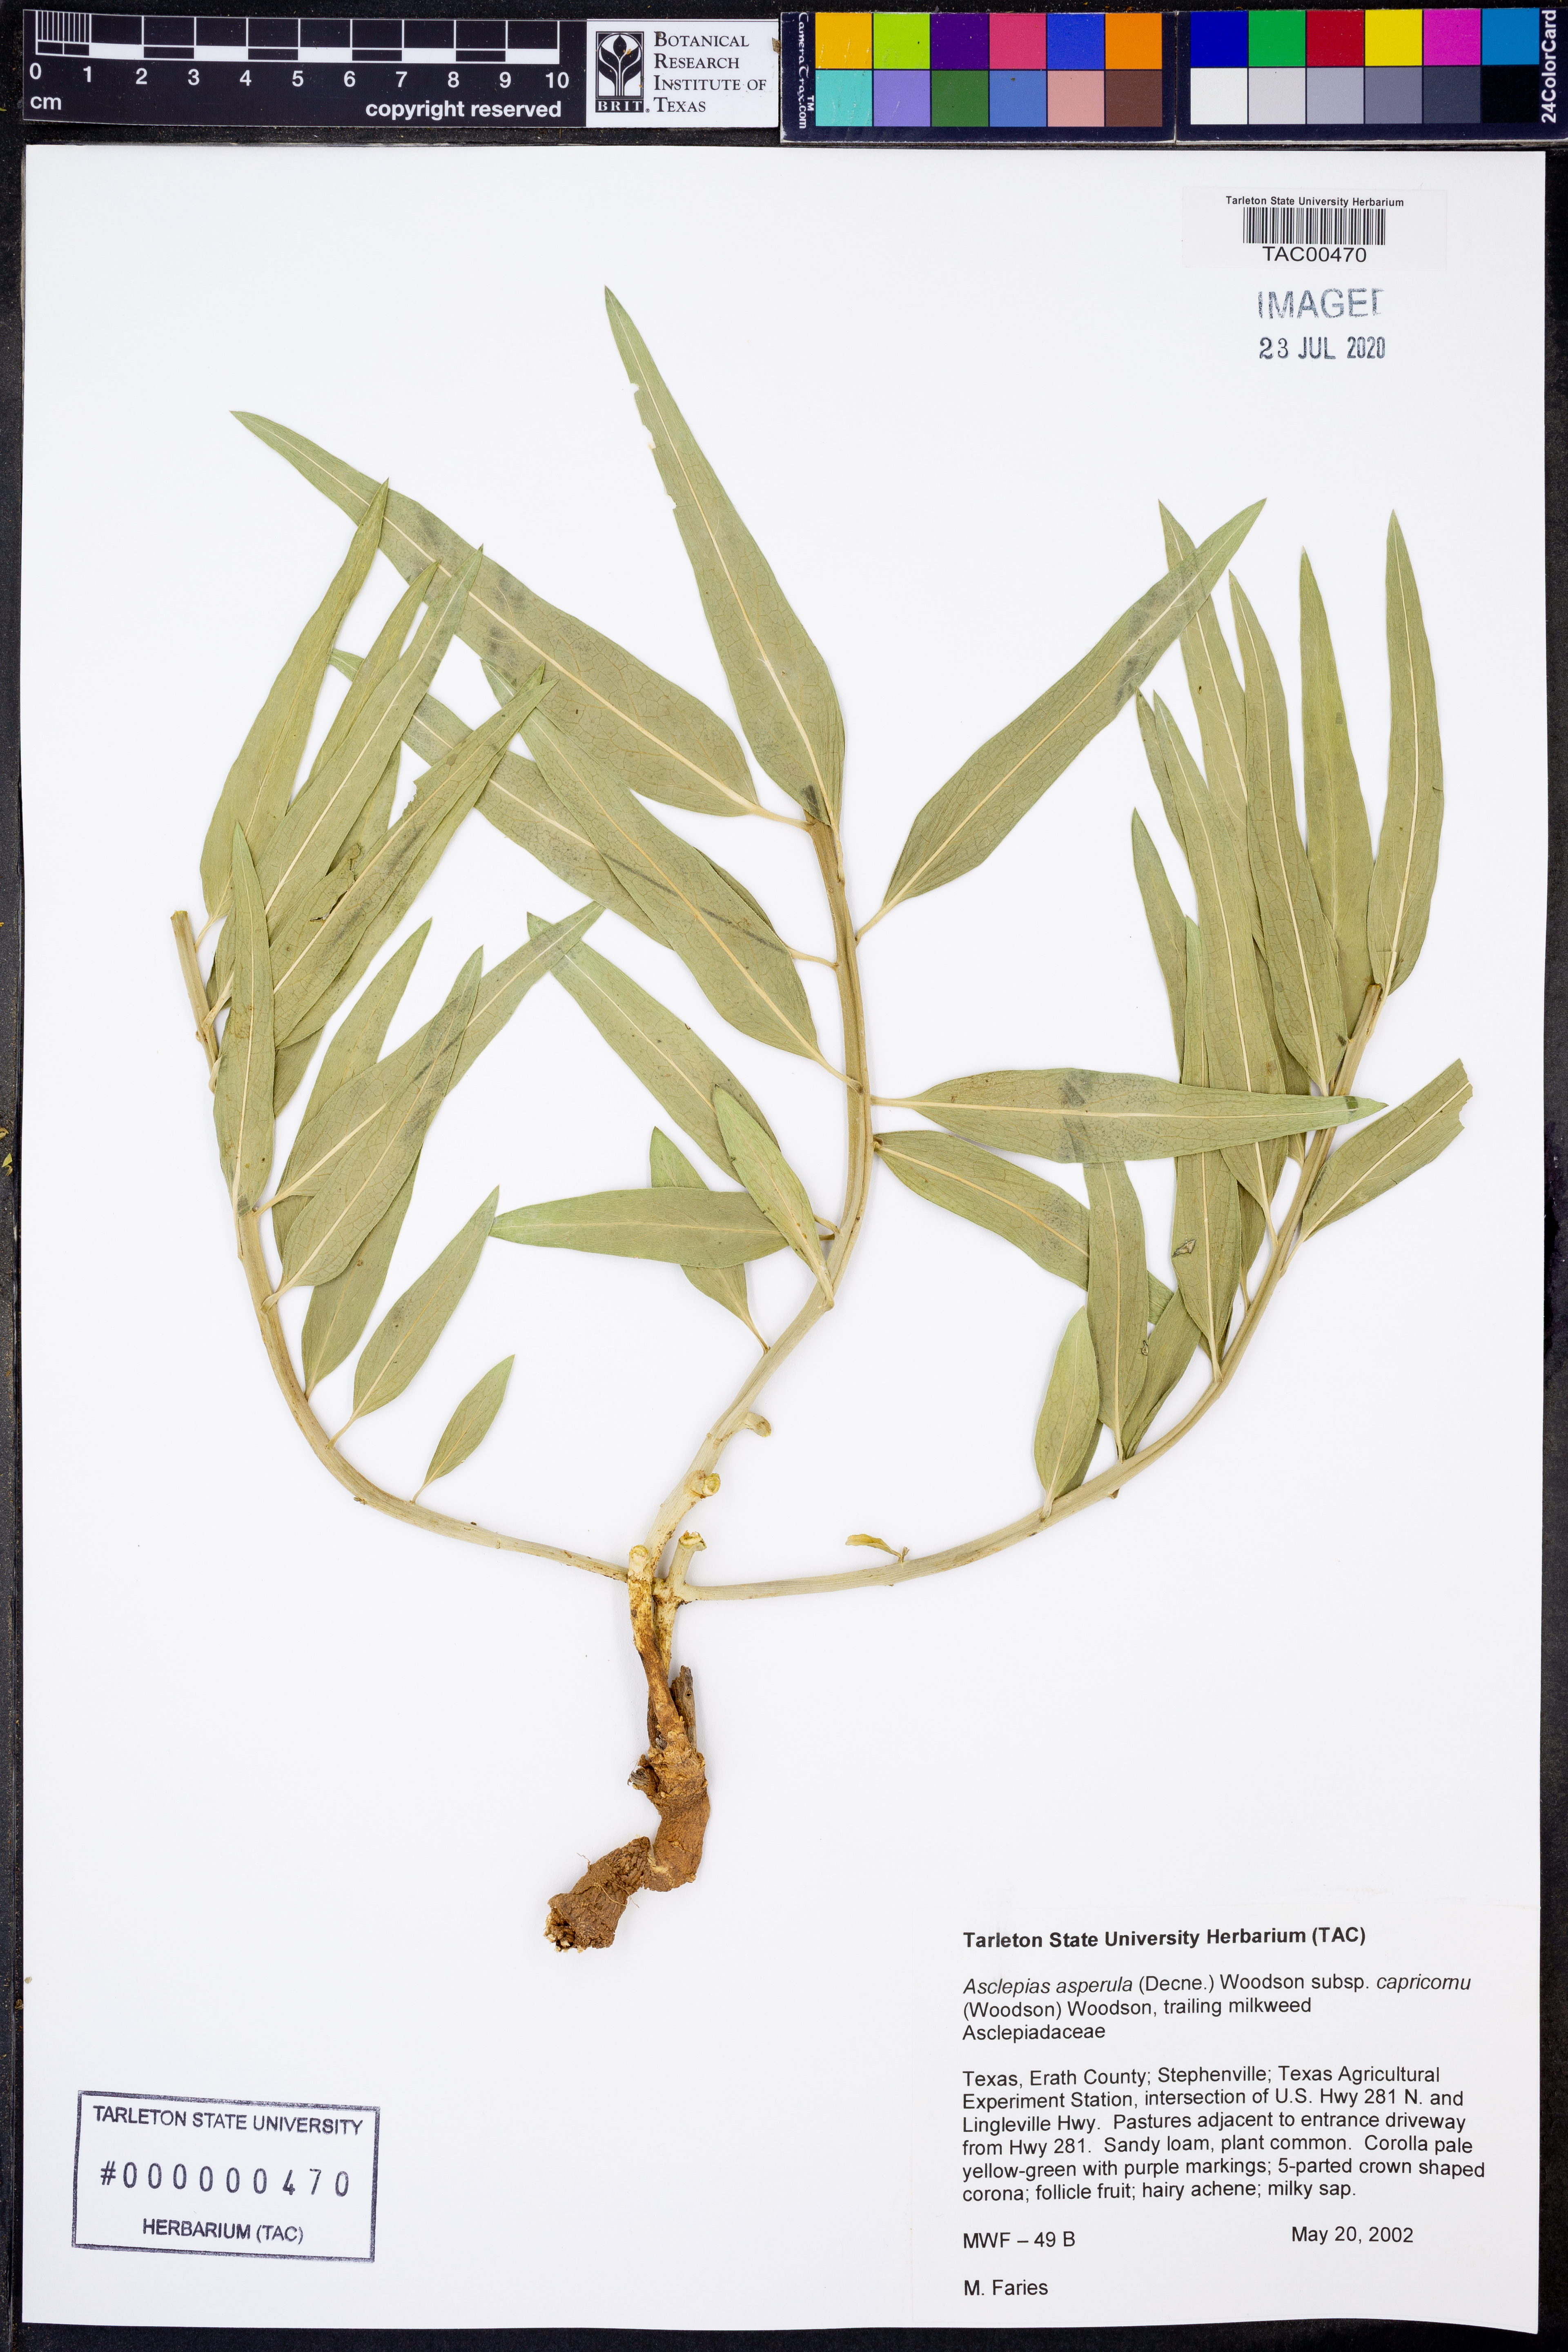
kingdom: Plantae
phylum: Tracheophyta
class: Magnoliopsida
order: Gentianales
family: Apocynaceae
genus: Asclepias
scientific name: Asclepias asperula
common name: Antelope horns
